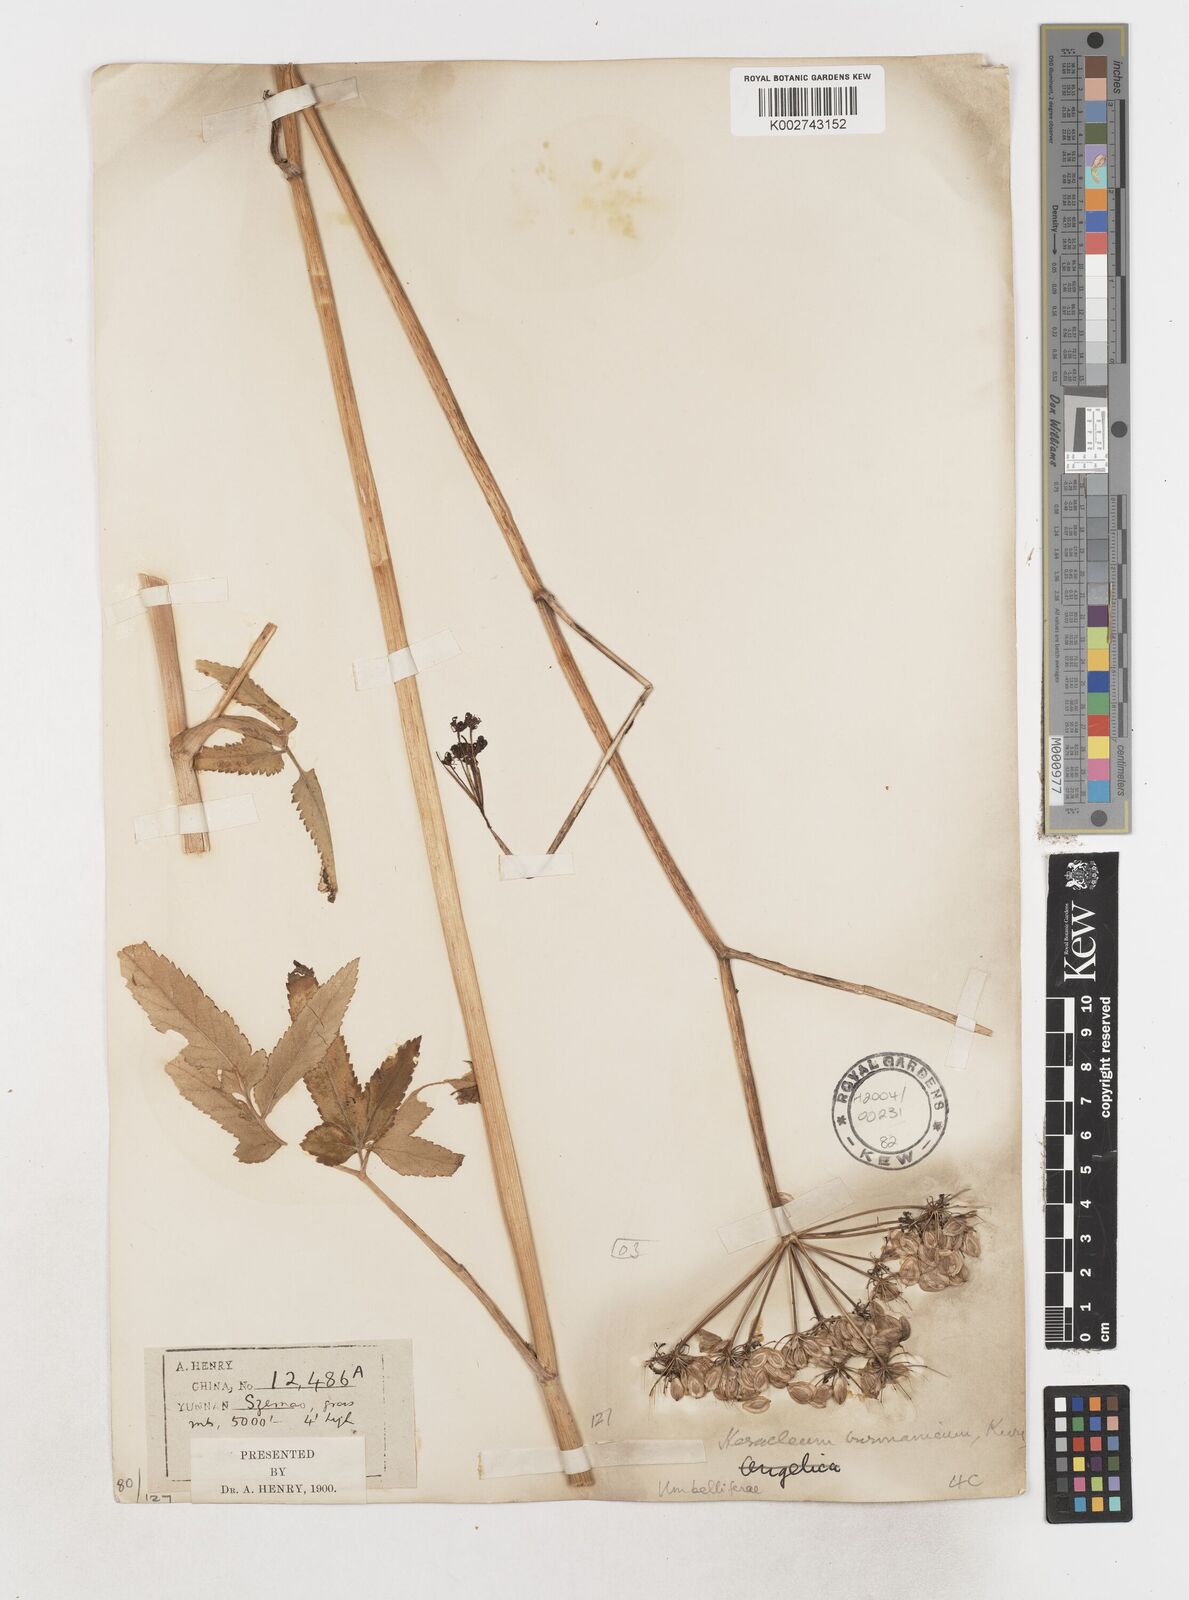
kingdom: Plantae
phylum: Tracheophyta
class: Magnoliopsida
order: Apiales
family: Apiaceae
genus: Tetrataenium
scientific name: Tetrataenium birmanicum
